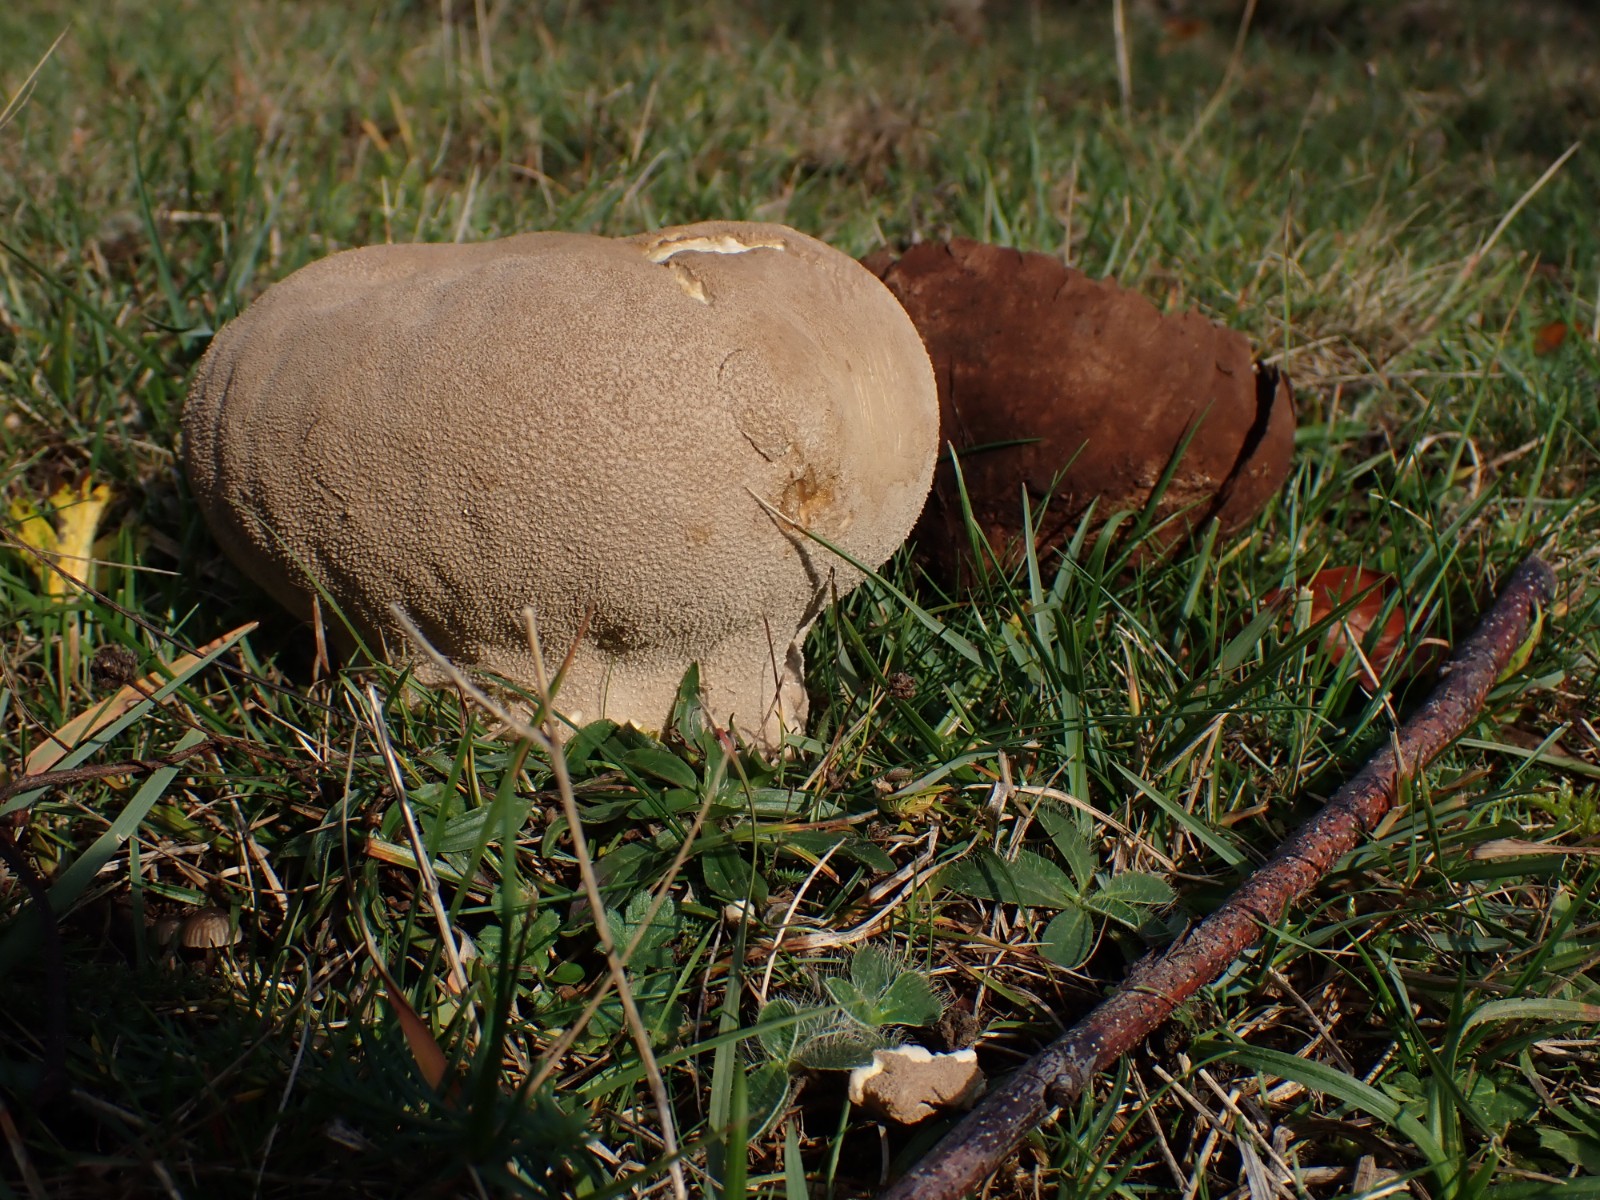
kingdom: Fungi
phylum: Basidiomycota
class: Agaricomycetes
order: Agaricales
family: Lycoperdaceae
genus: Bovistella
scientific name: Bovistella utriformis
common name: skællet støvbold
